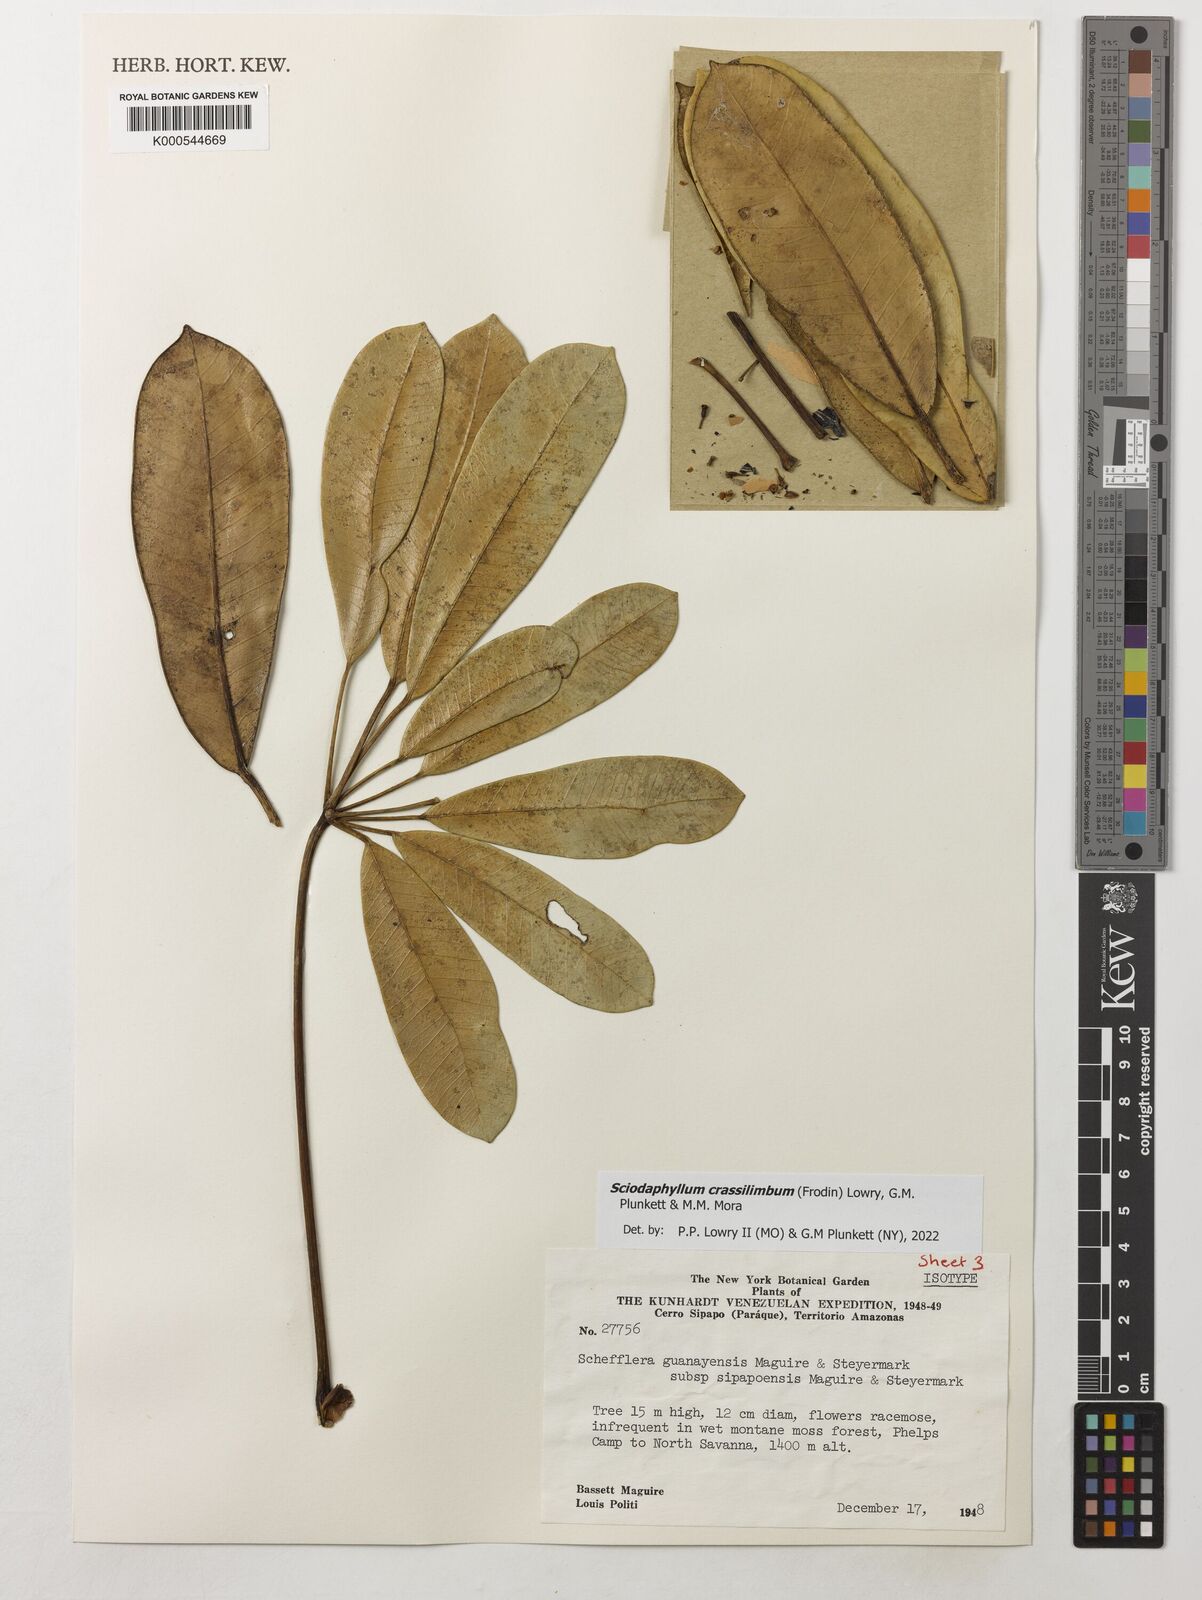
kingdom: Plantae
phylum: Tracheophyta
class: Magnoliopsida
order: Apiales
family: Araliaceae
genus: Sciodaphyllum
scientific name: Sciodaphyllum
